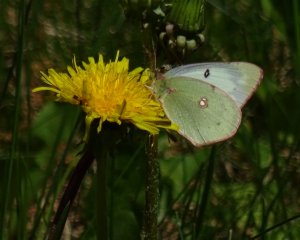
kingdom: Animalia
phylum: Arthropoda
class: Insecta
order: Lepidoptera
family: Pieridae
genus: Colias
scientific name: Colias philodice
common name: Clouded Sulphur
